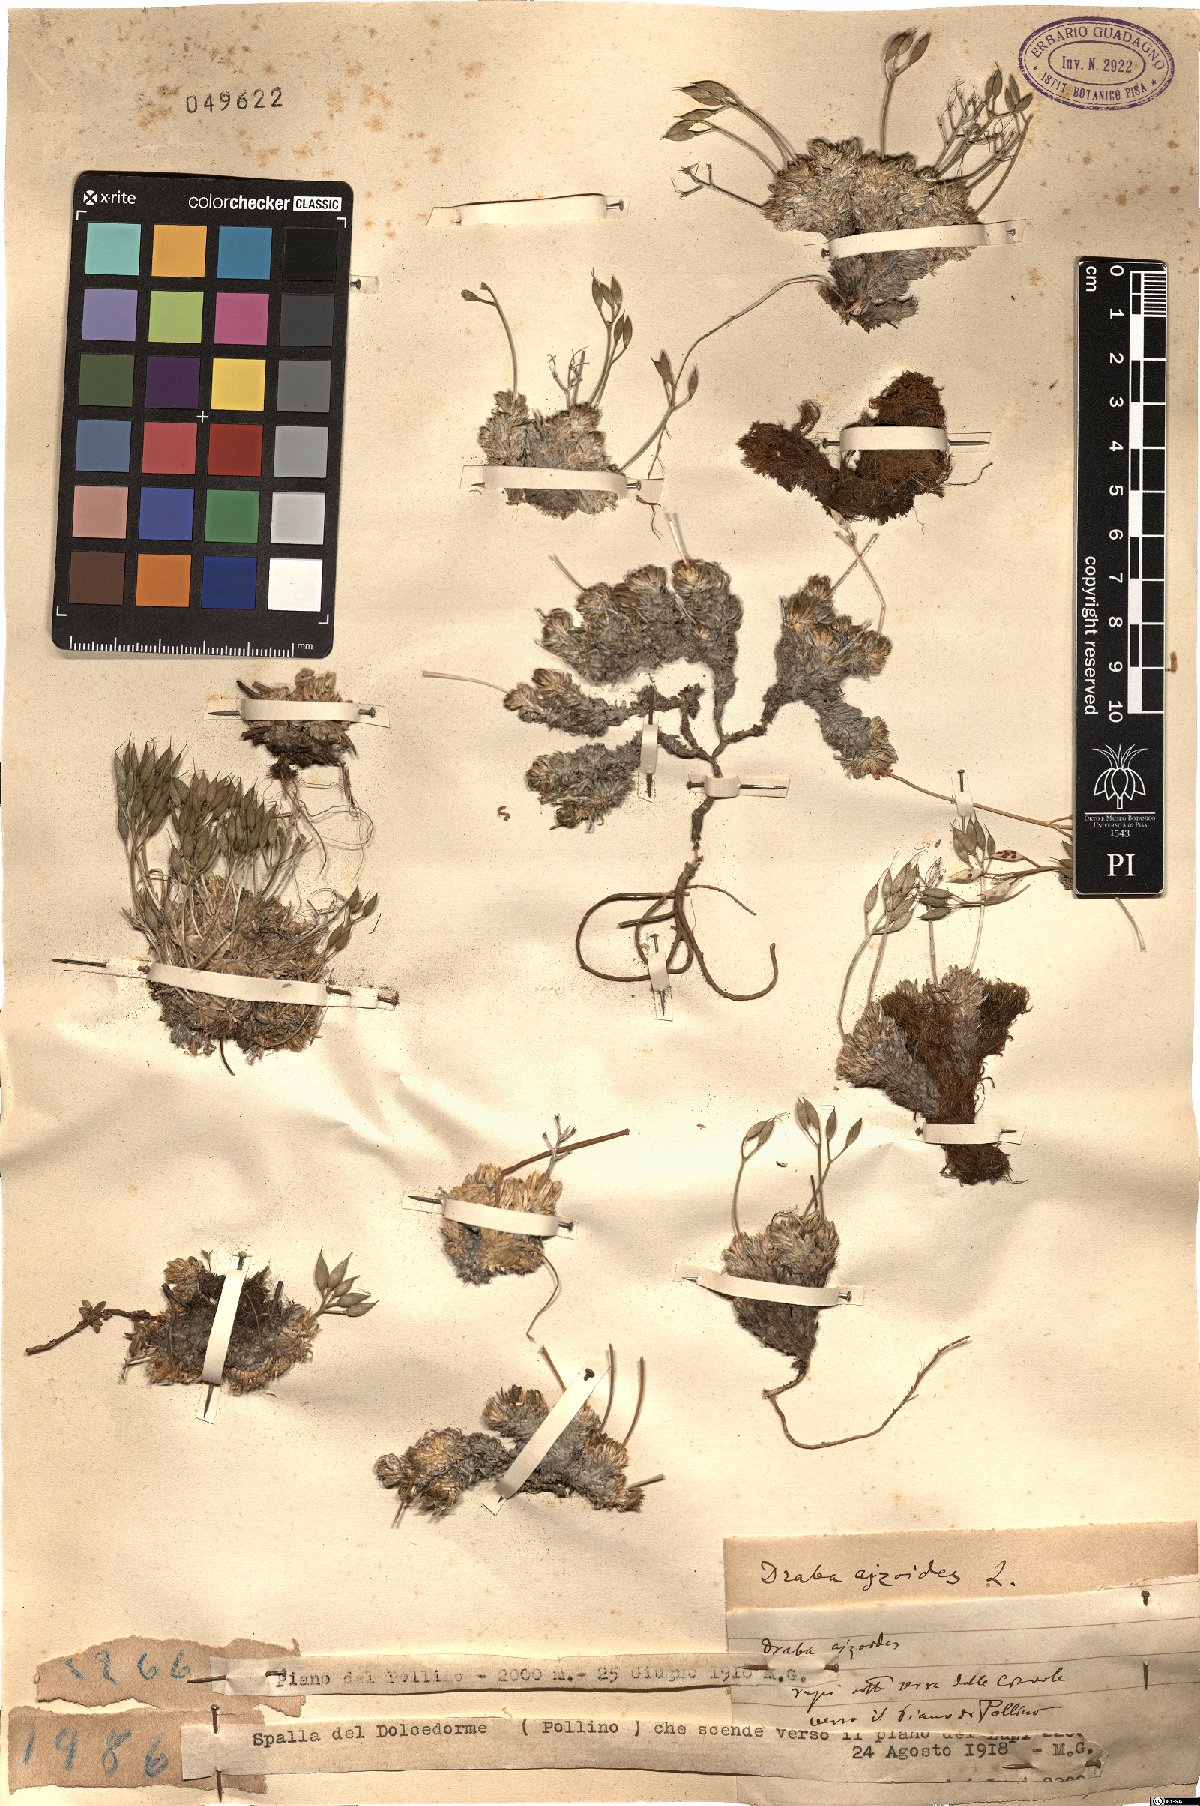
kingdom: Plantae
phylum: Tracheophyta
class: Magnoliopsida
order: Brassicales
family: Brassicaceae
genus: Draba
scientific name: Draba aizoides
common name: Yellow whitlowgrass
